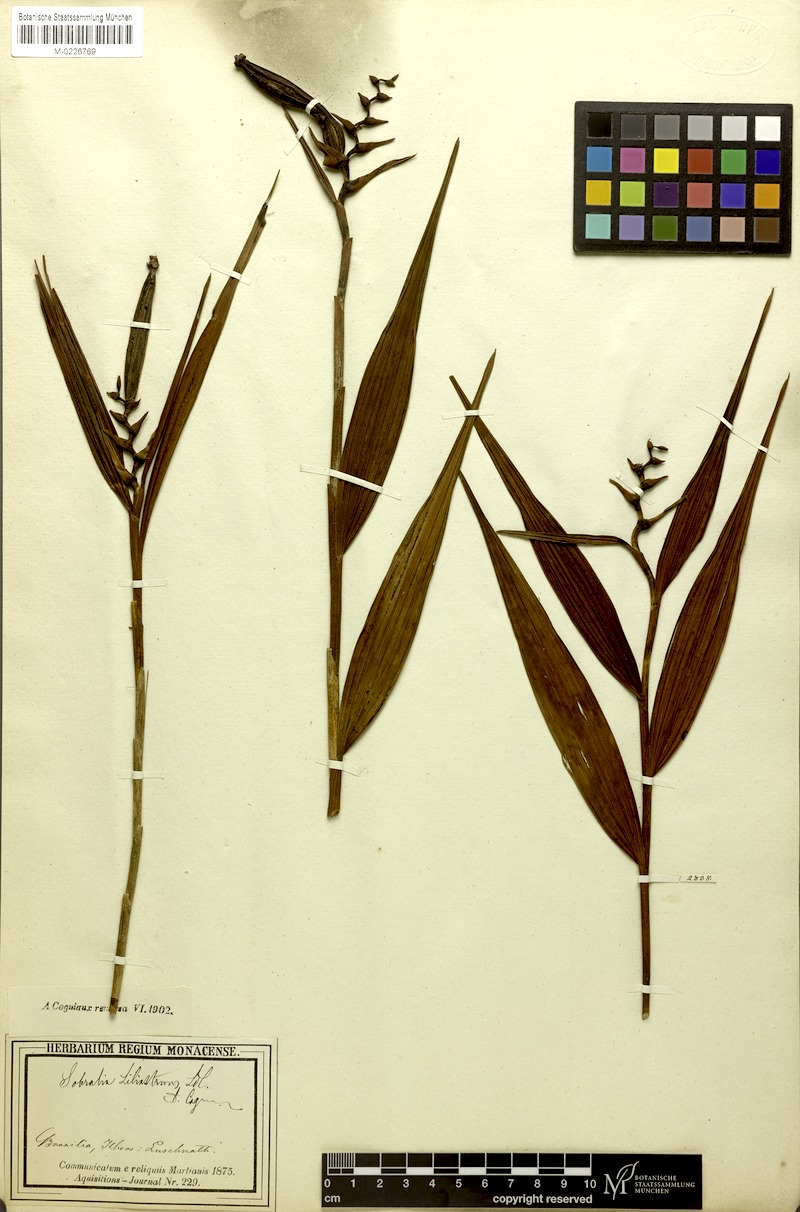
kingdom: Plantae
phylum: Tracheophyta
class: Liliopsida
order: Asparagales
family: Orchidaceae
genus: Sobralia
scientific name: Sobralia liliastrum
